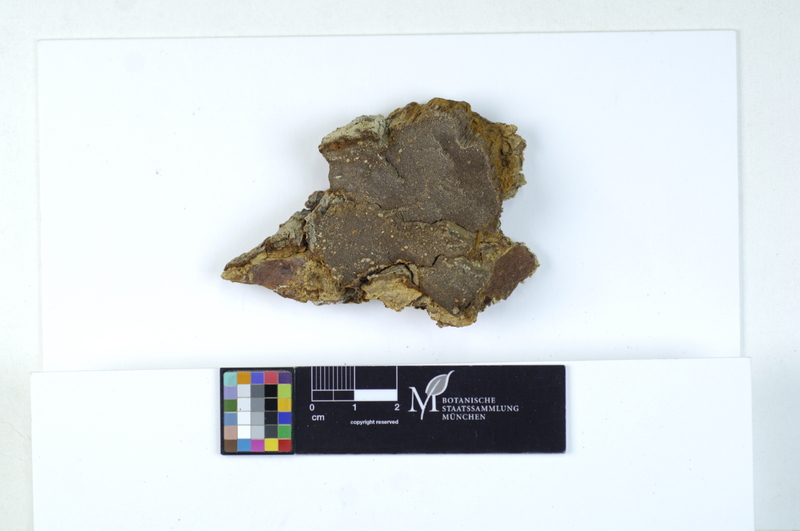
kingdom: Fungi
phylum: Basidiomycota
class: Agaricomycetes
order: Hymenochaetales
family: Hymenochaetaceae
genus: Phellinidium
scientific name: Phellinidium ferrugineofuscum
